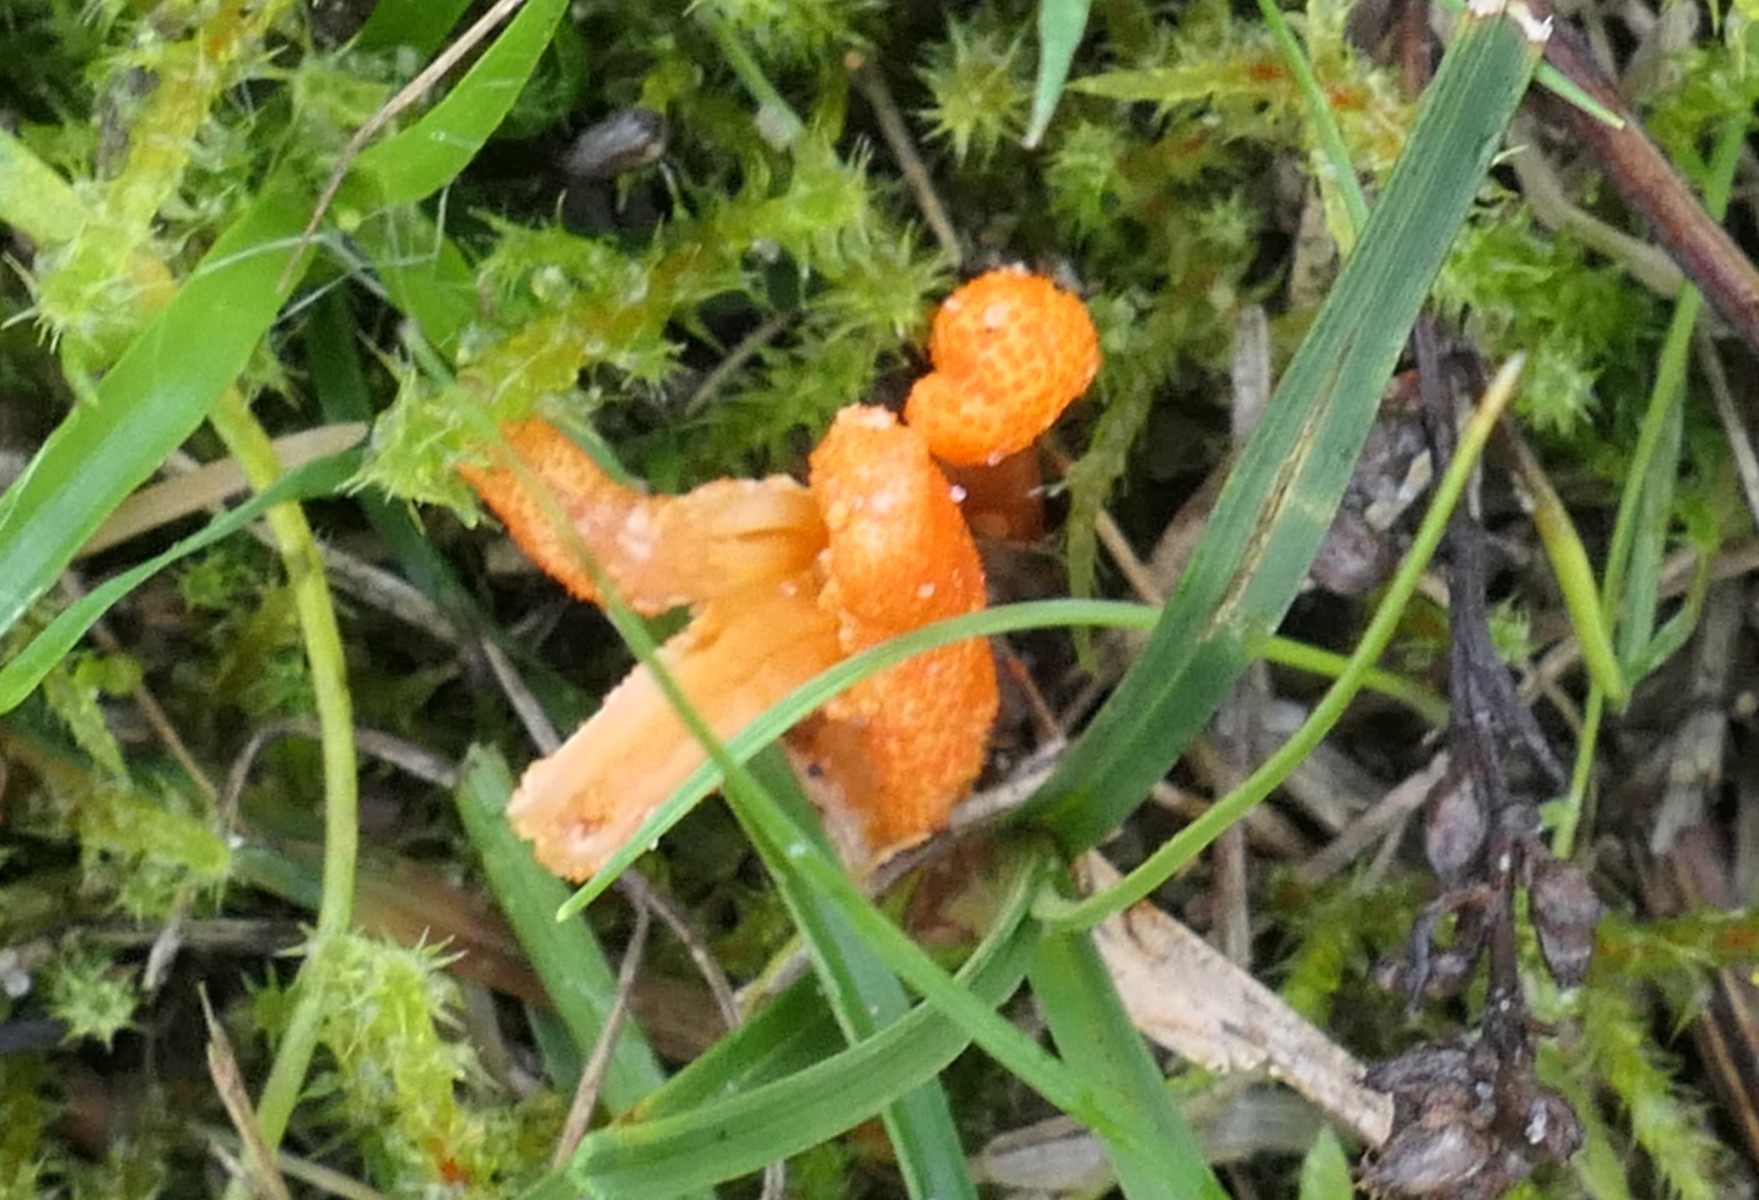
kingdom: Fungi
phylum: Ascomycota
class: Sordariomycetes
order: Hypocreales
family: Cordycipitaceae
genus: Cordyceps
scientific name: Cordyceps militaris
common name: puppe-snyltekølle
